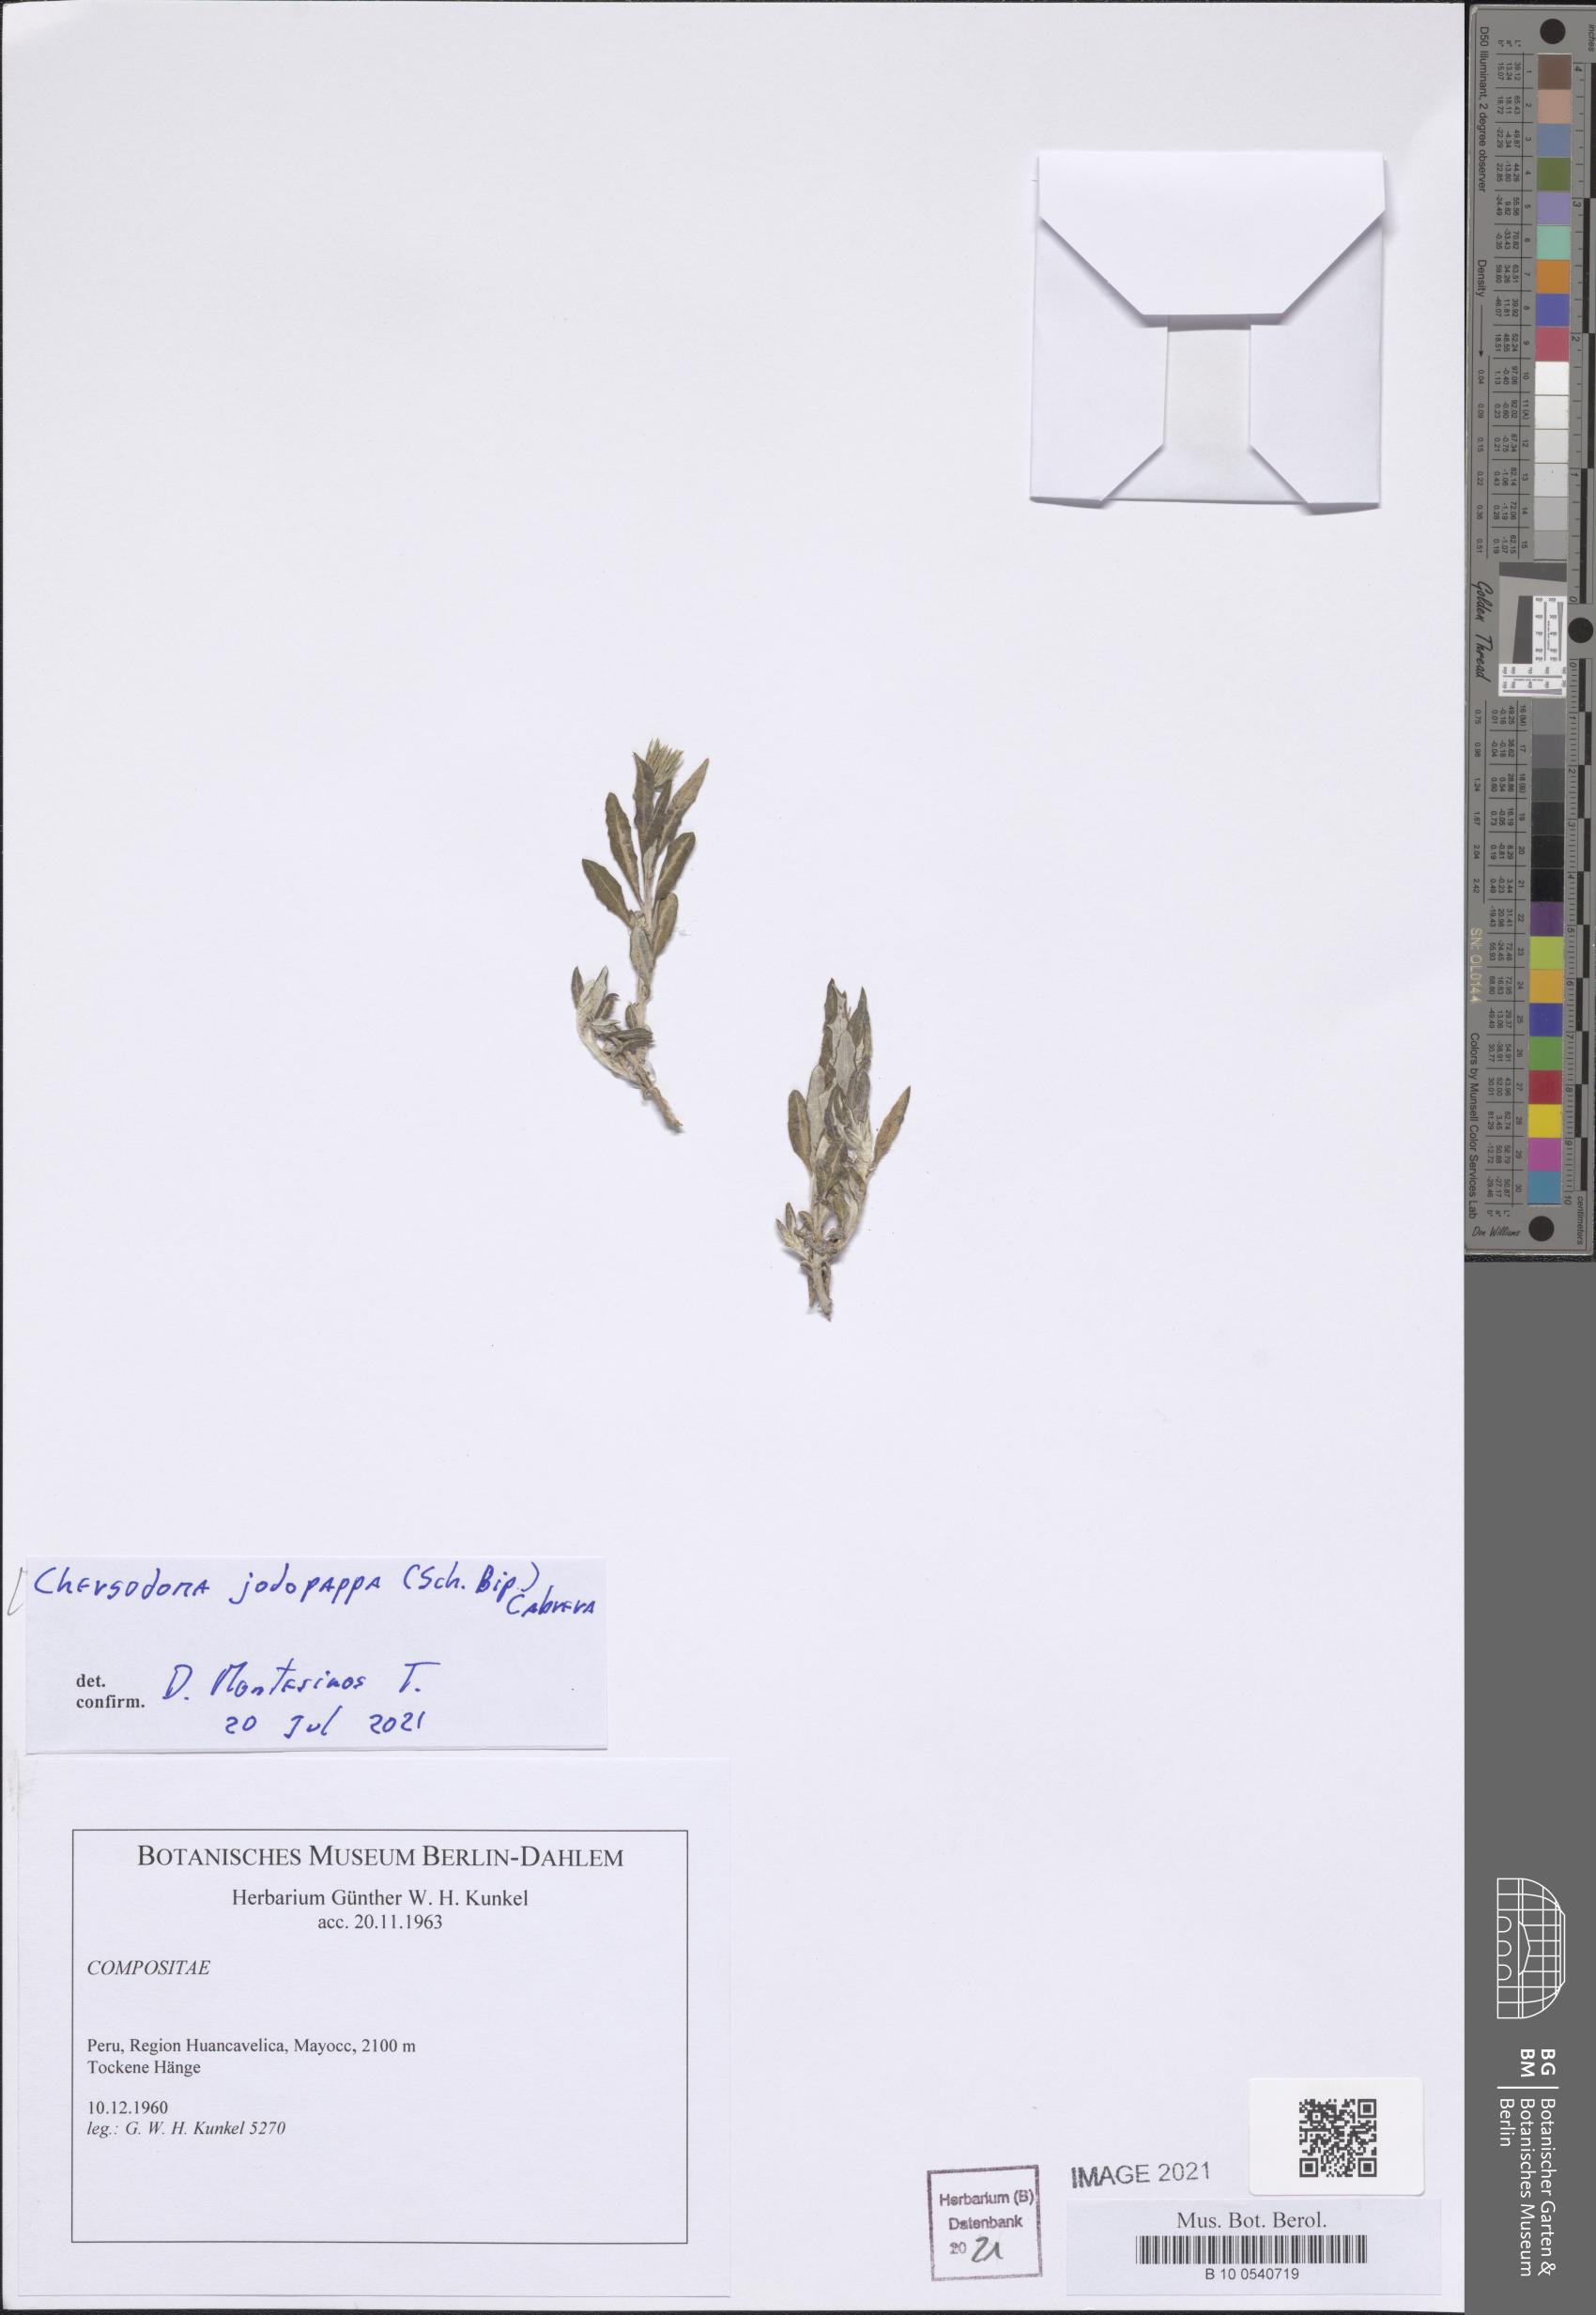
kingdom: Plantae
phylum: Tracheophyta
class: Magnoliopsida
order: Asterales
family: Asteraceae
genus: Chersodoma
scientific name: Chersodoma jodopappa
